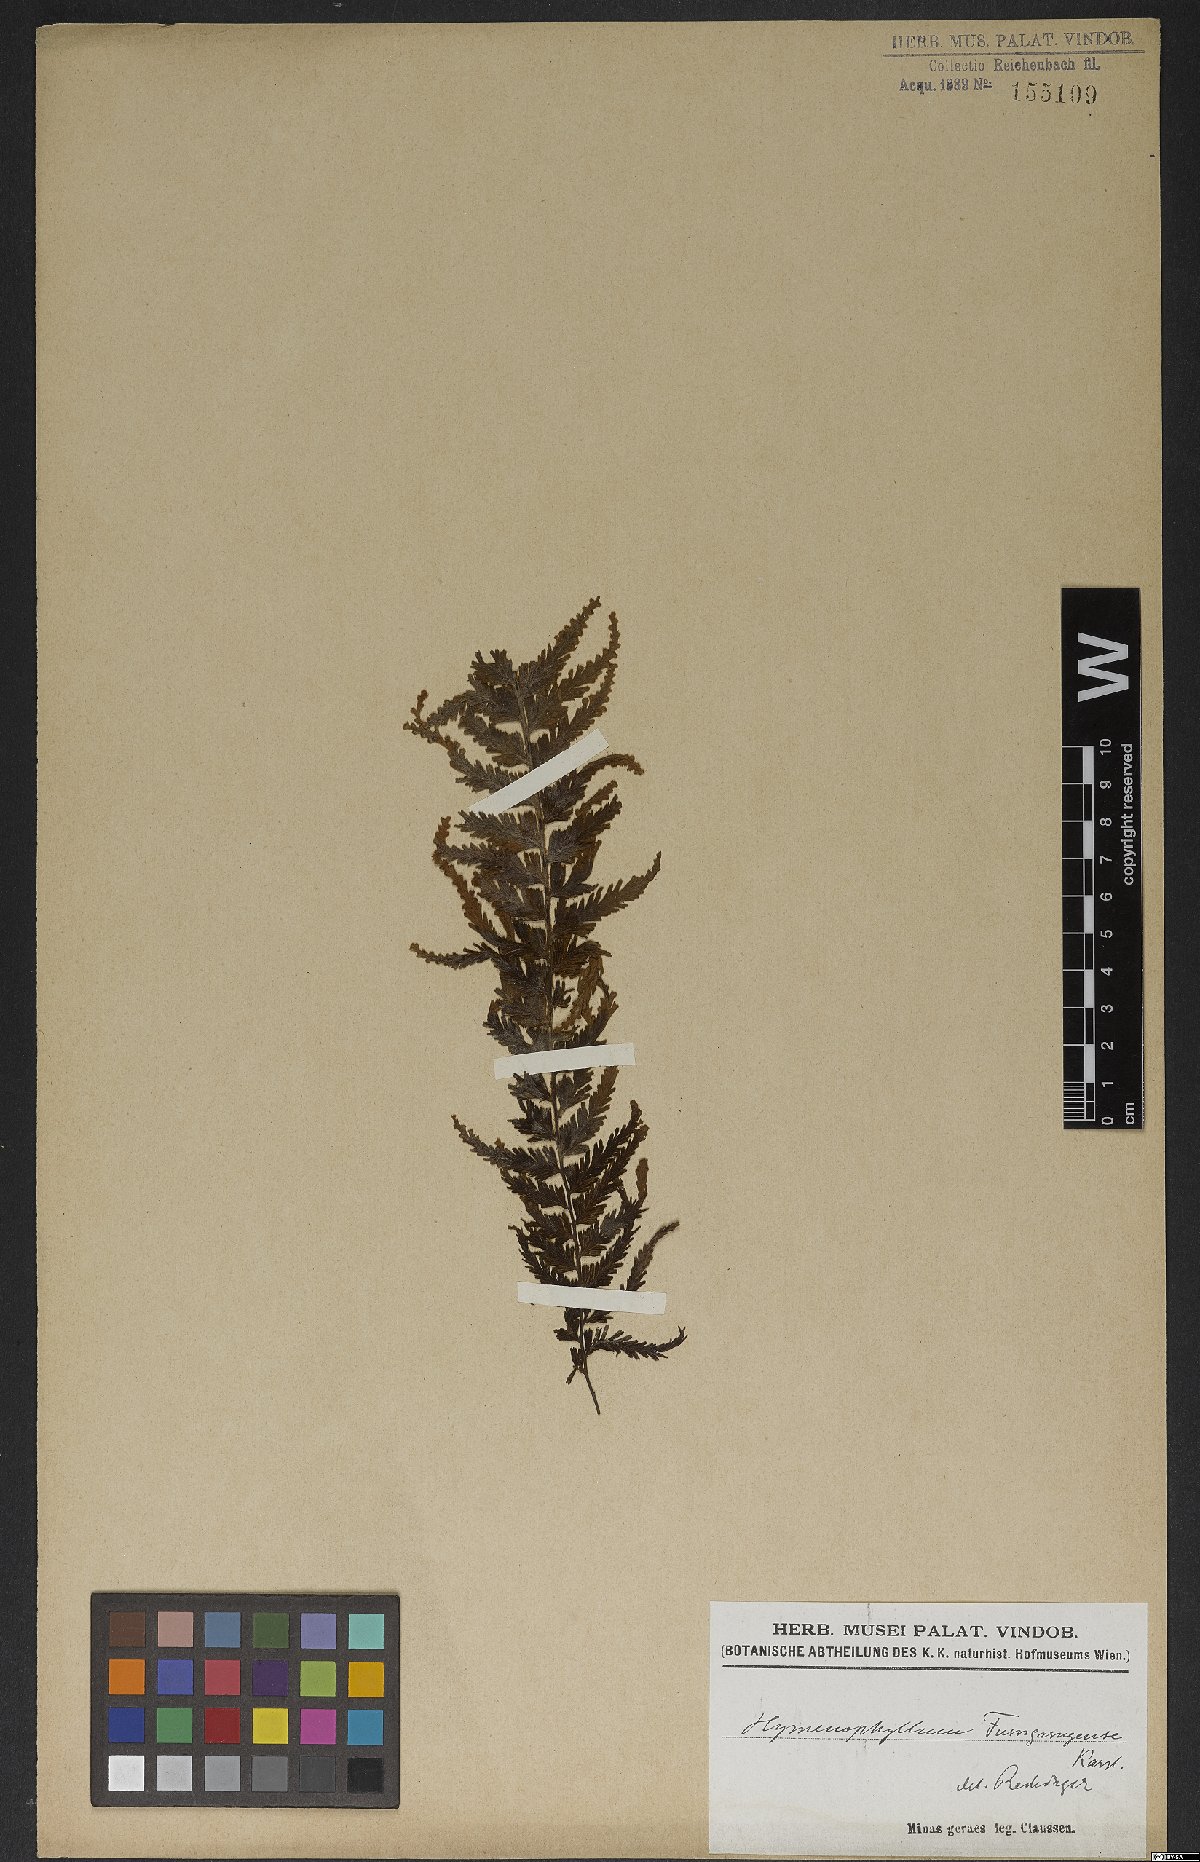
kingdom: Plantae
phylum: Tracheophyta
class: Polypodiopsida
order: Hymenophyllales
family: Hymenophyllaceae
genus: Hymenophyllum
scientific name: Hymenophyllum tomentosum
